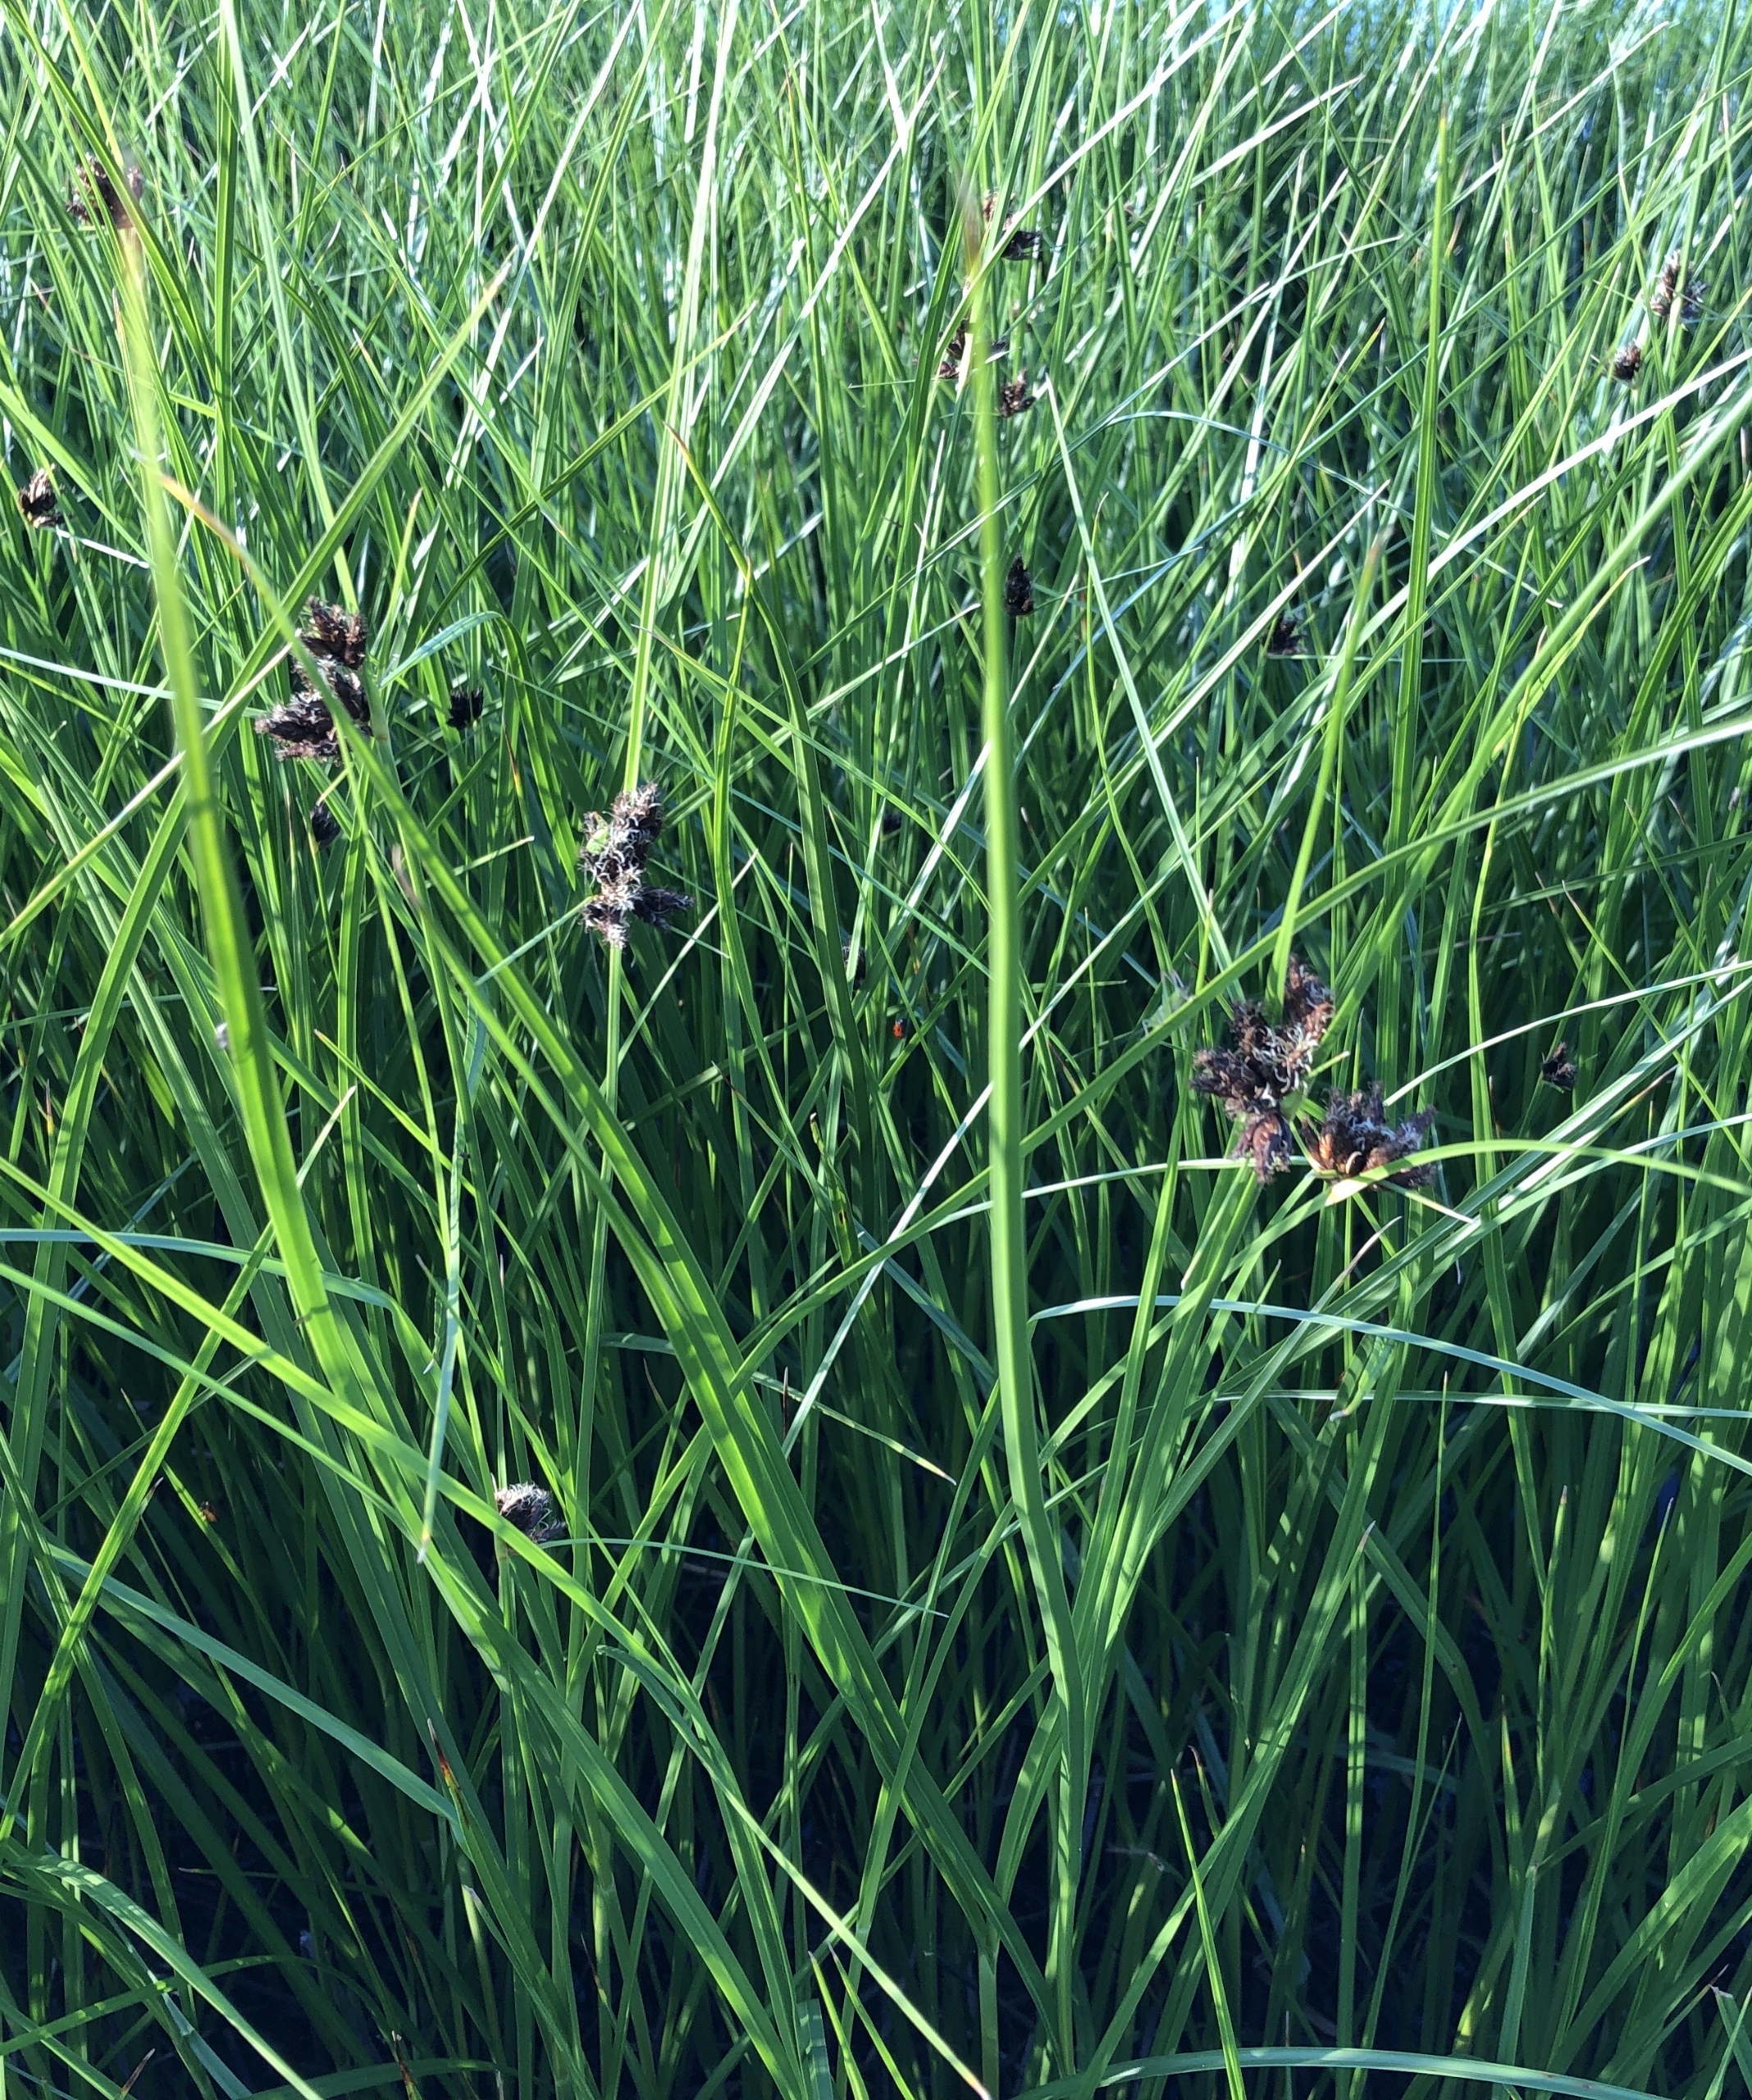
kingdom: Plantae
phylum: Tracheophyta
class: Liliopsida
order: Poales
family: Cyperaceae
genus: Bolboschoenus
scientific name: Bolboschoenus maritimus
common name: Strand-kogleaks
